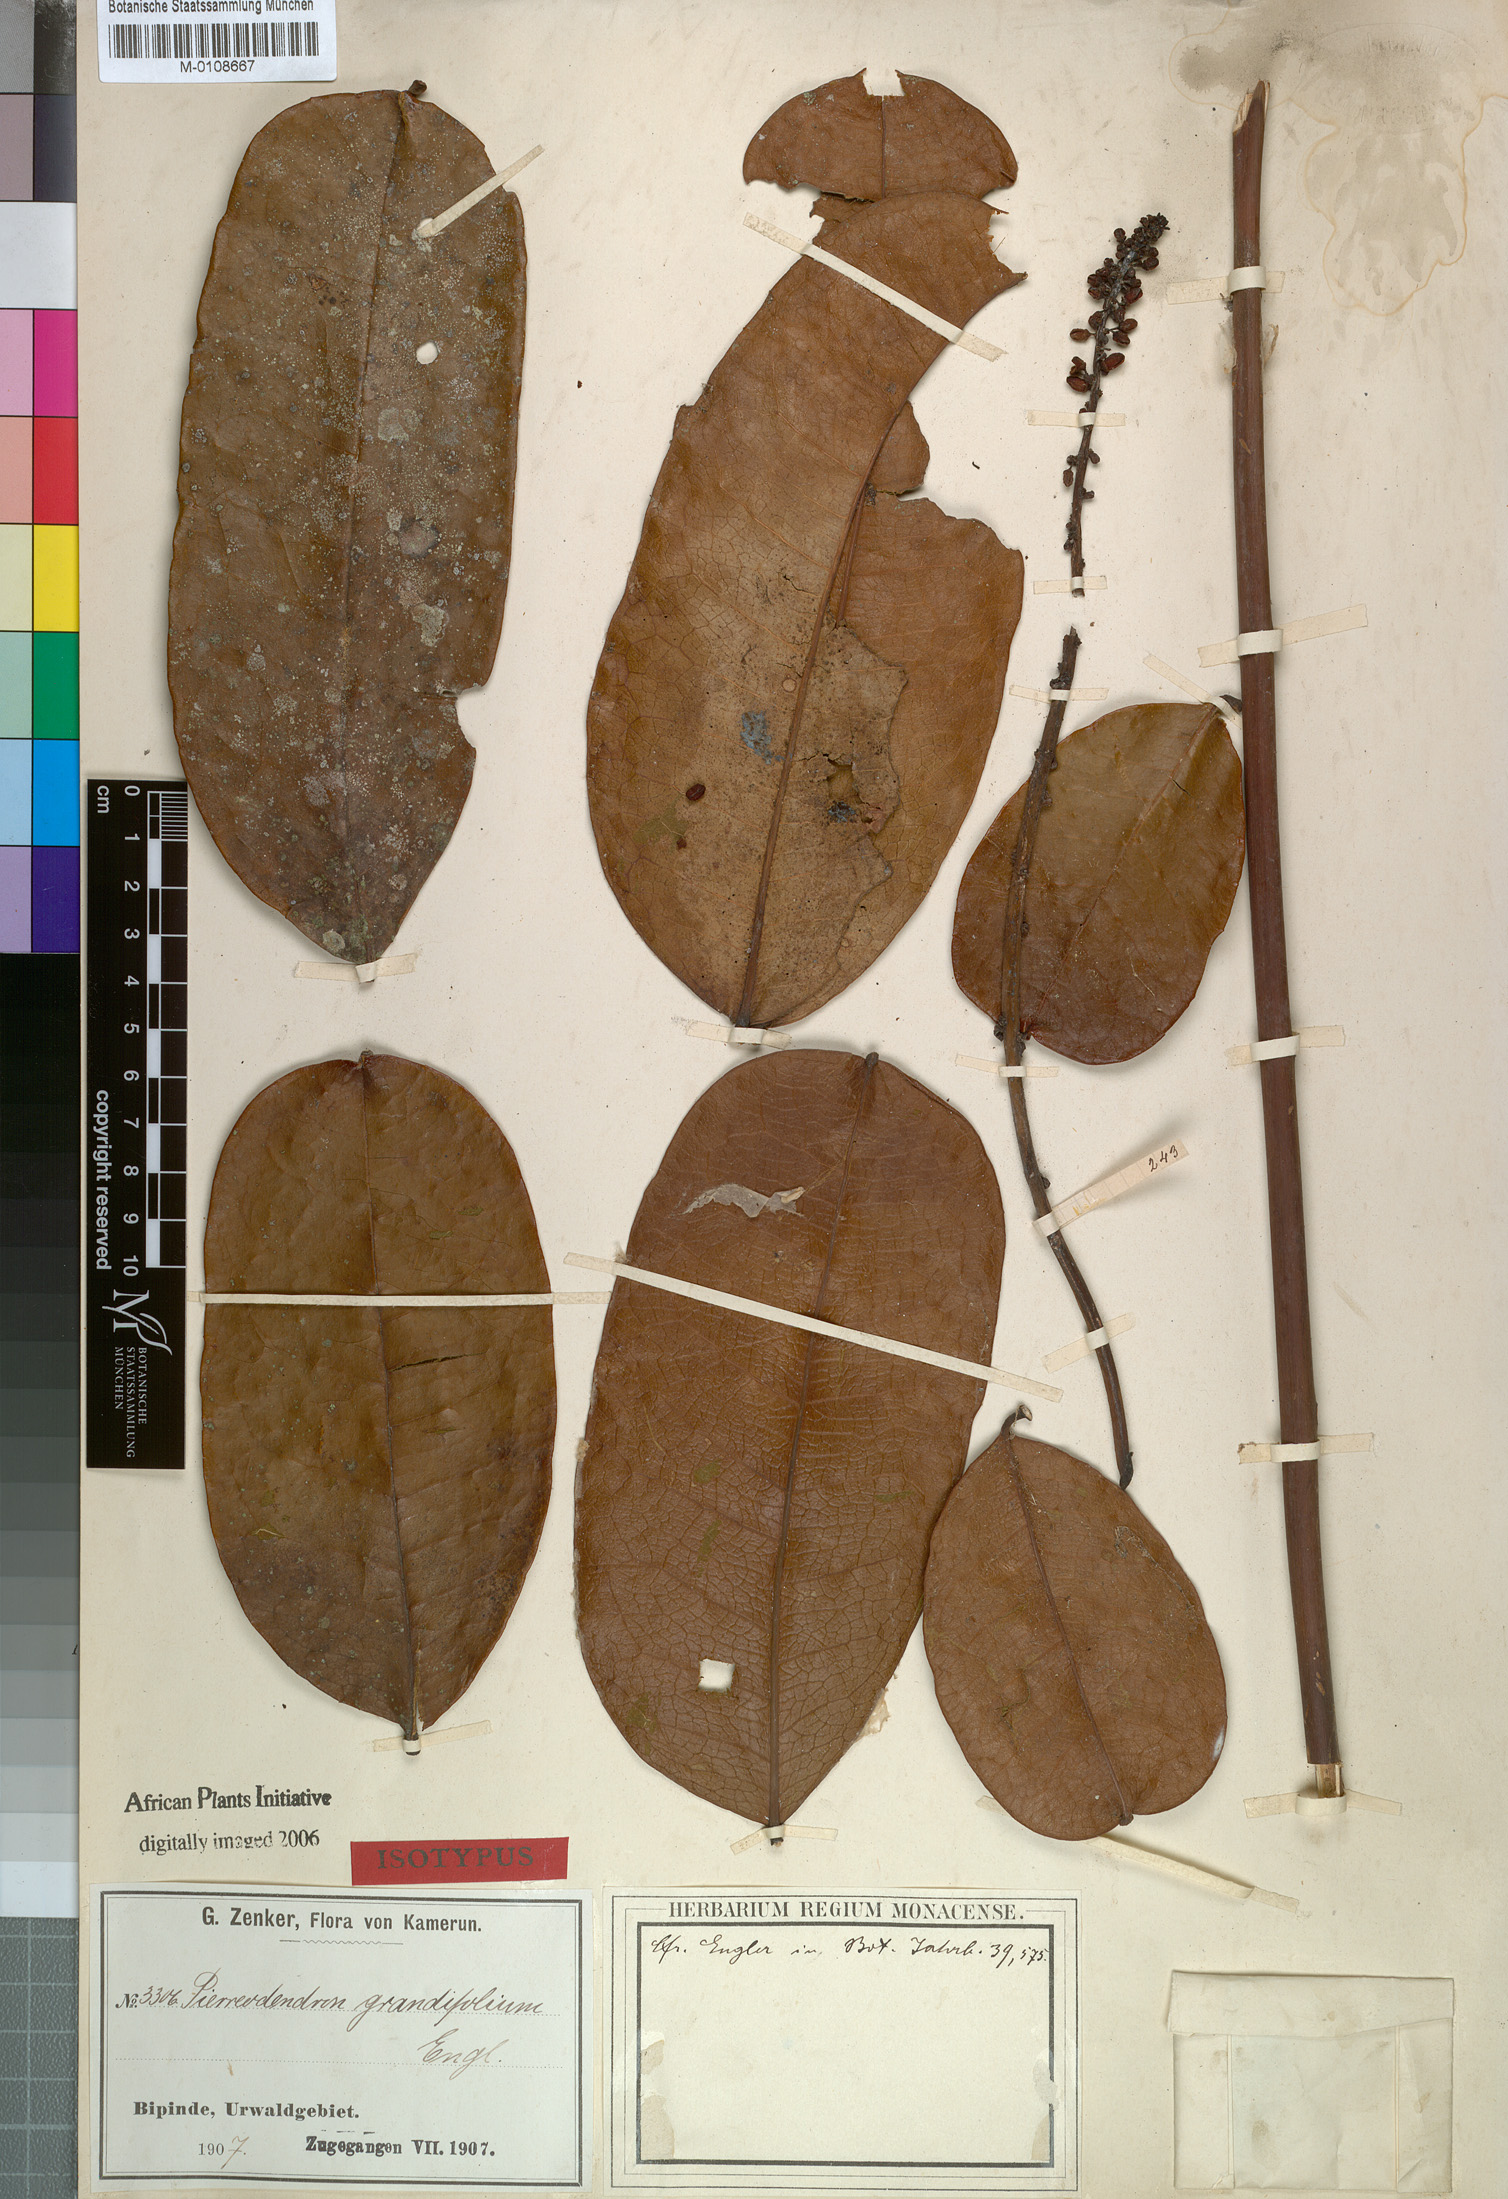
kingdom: Plantae
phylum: Tracheophyta
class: Magnoliopsida
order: Sapindales
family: Simaroubaceae
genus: Simaba
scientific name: Simaba grandifolia
